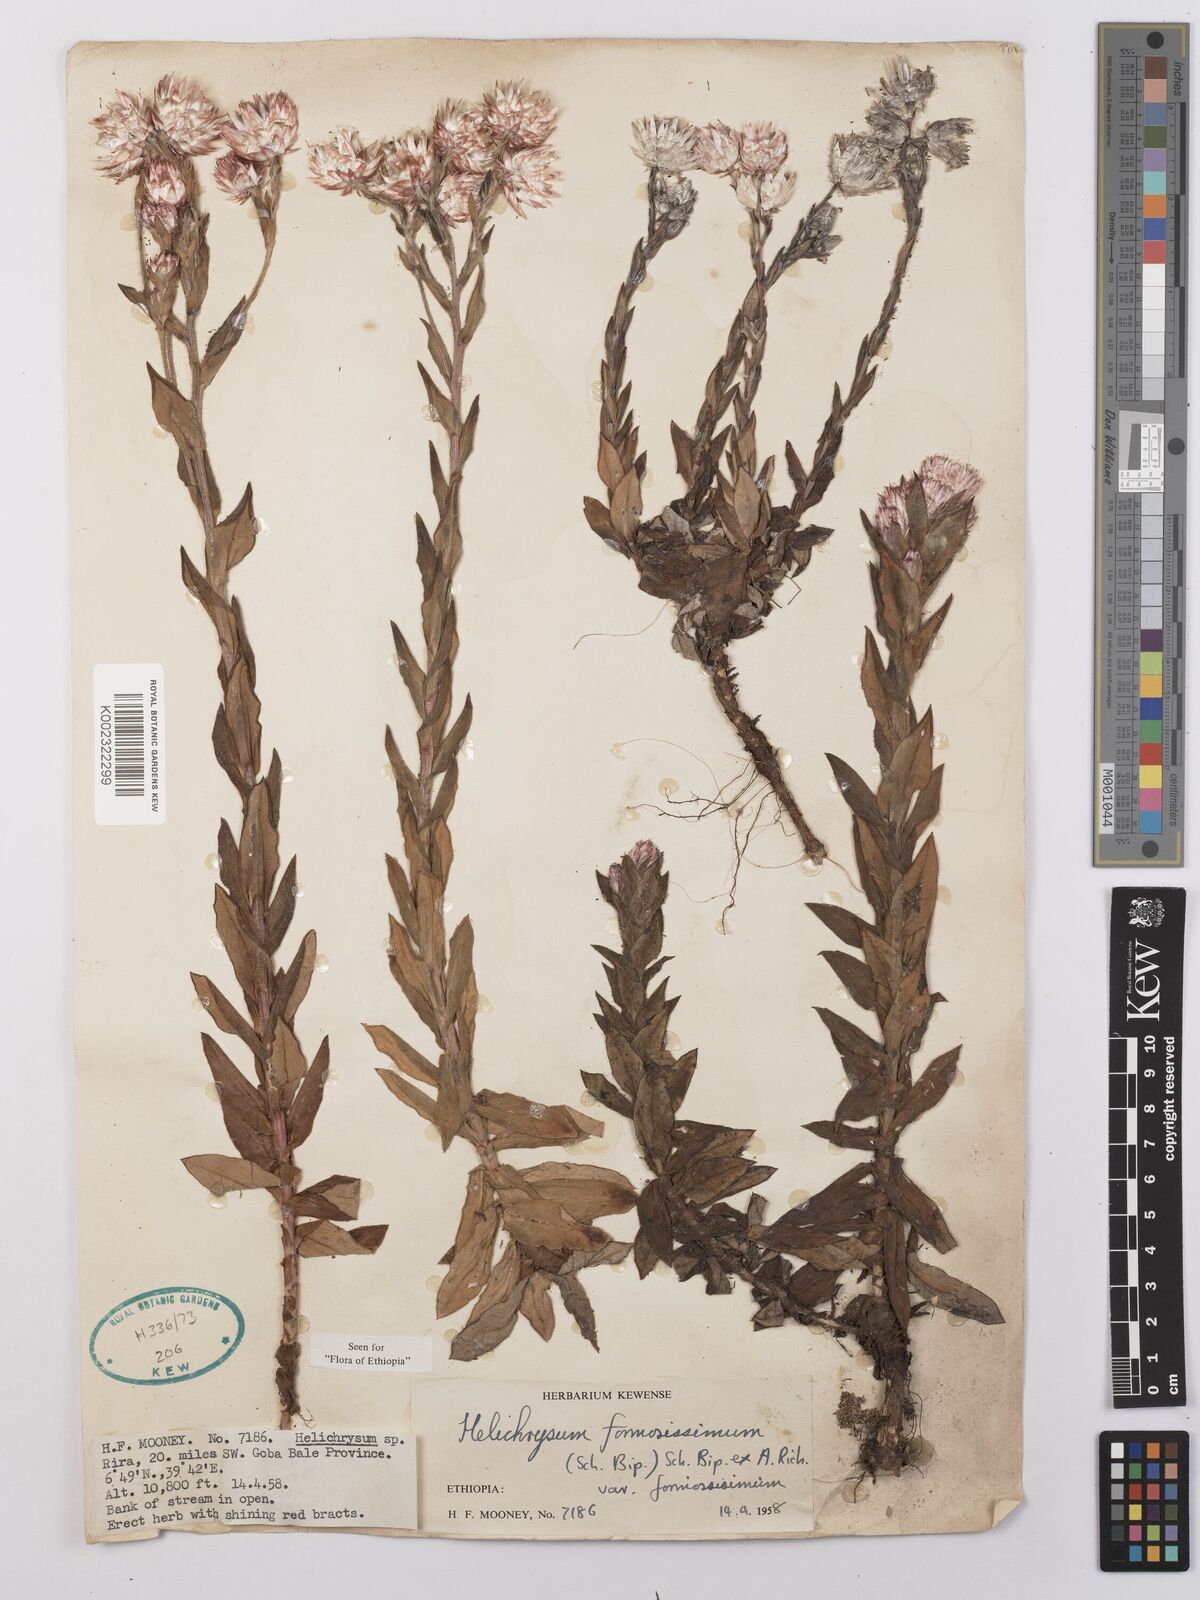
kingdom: Plantae
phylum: Tracheophyta
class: Magnoliopsida
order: Asterales
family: Asteraceae
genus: Helichrysum
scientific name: Helichrysum formosissimum
